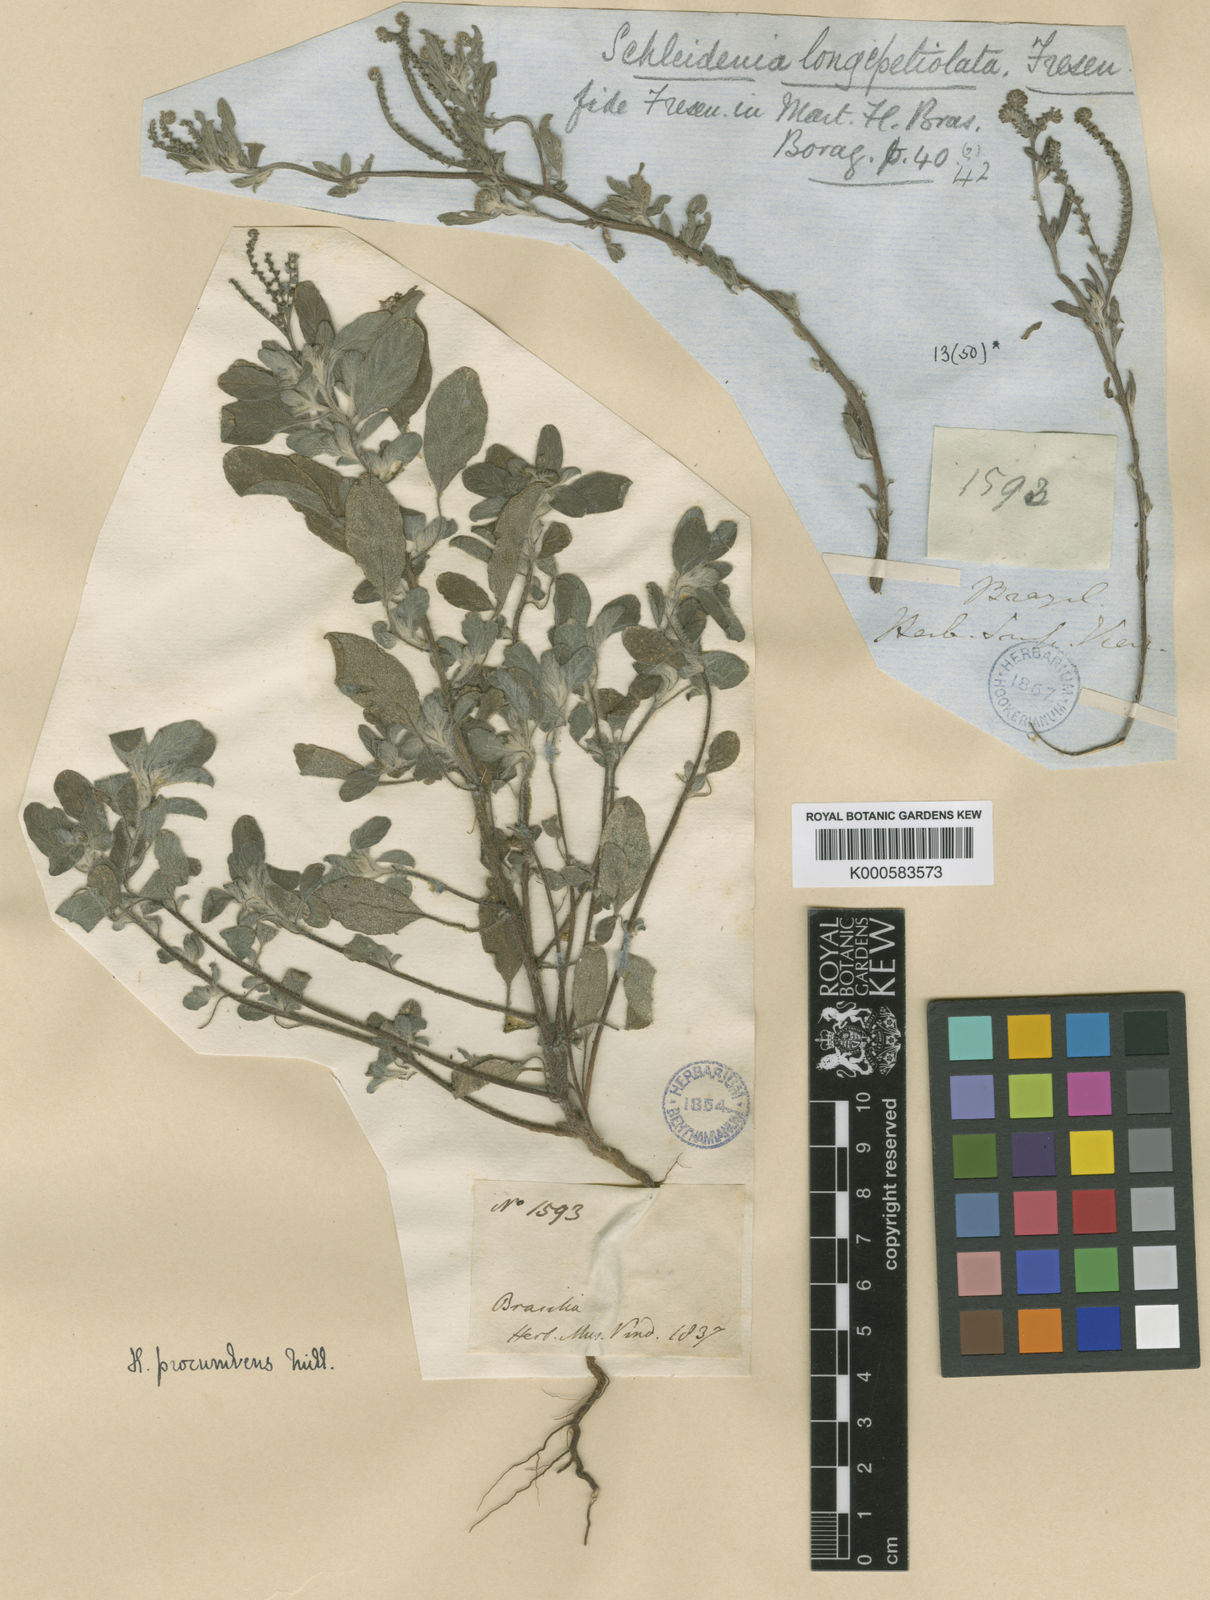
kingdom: Plantae
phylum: Tracheophyta
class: Magnoliopsida
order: Boraginales
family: Heliotropiaceae
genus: Euploca
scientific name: Euploca procumbens
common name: Fourspike heliotrope
